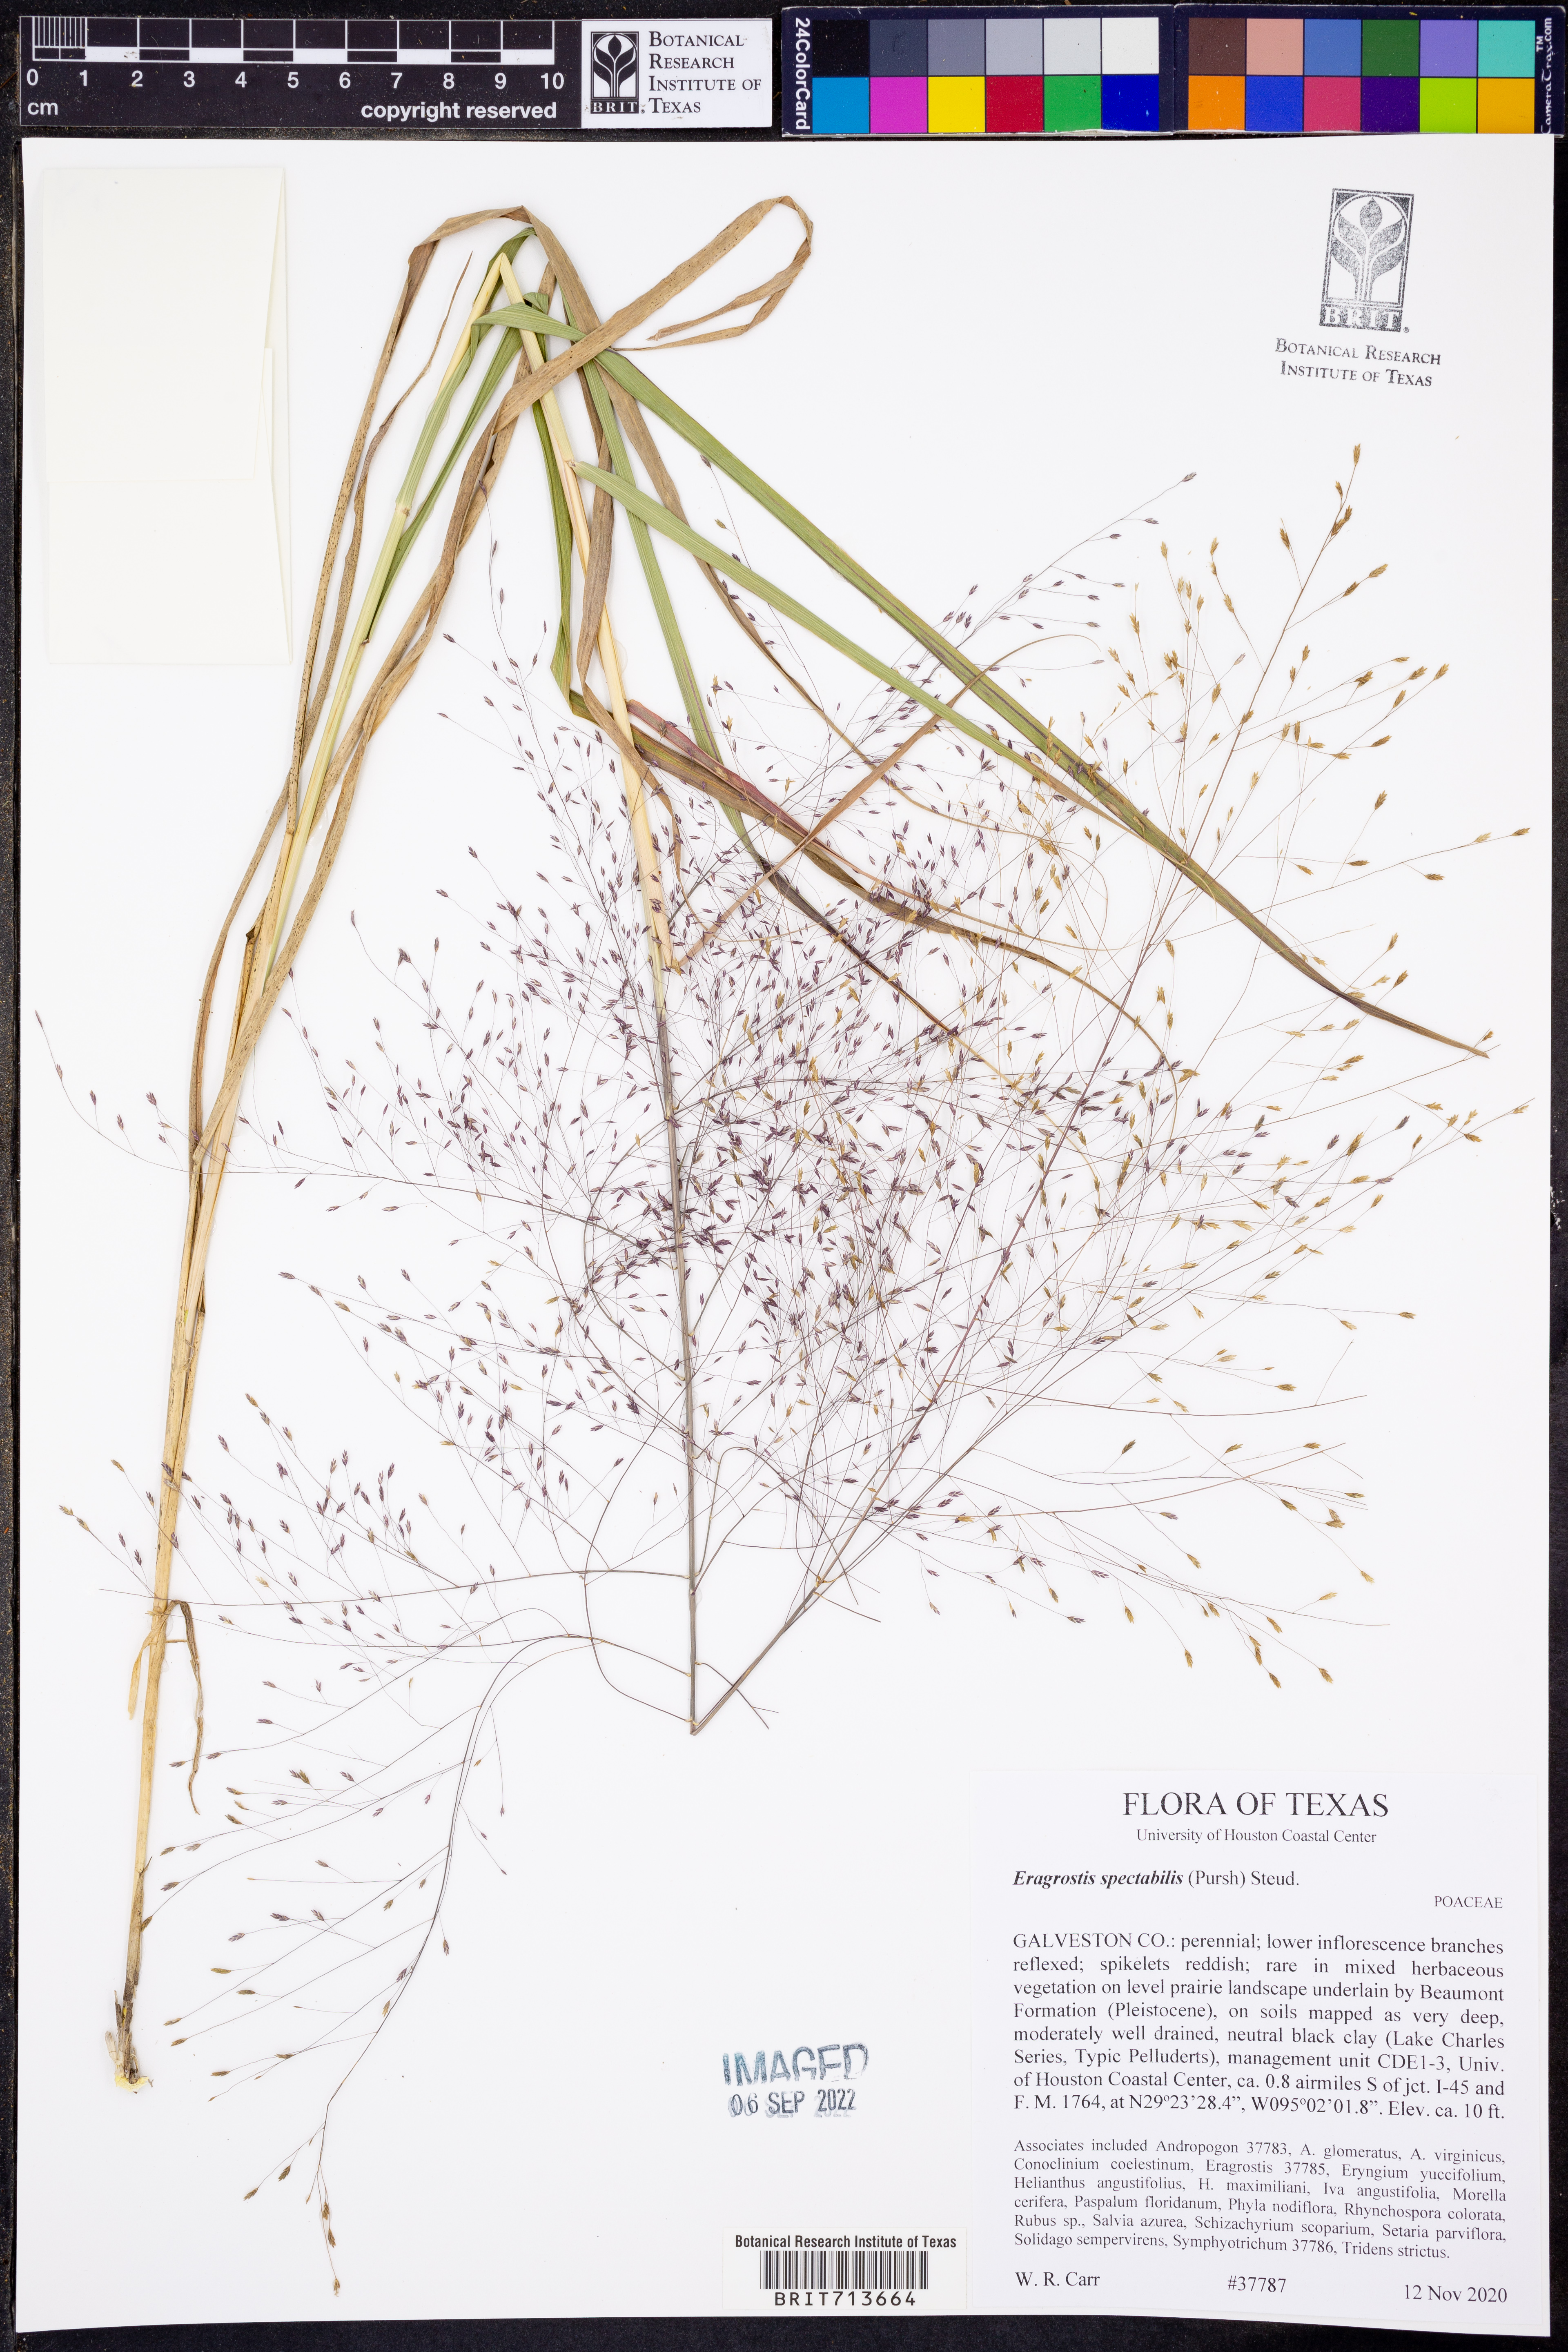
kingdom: Plantae
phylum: Tracheophyta
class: Liliopsida
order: Poales
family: Poaceae
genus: Eragrostis
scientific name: Eragrostis spectabilis
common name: Petticoat-climber
